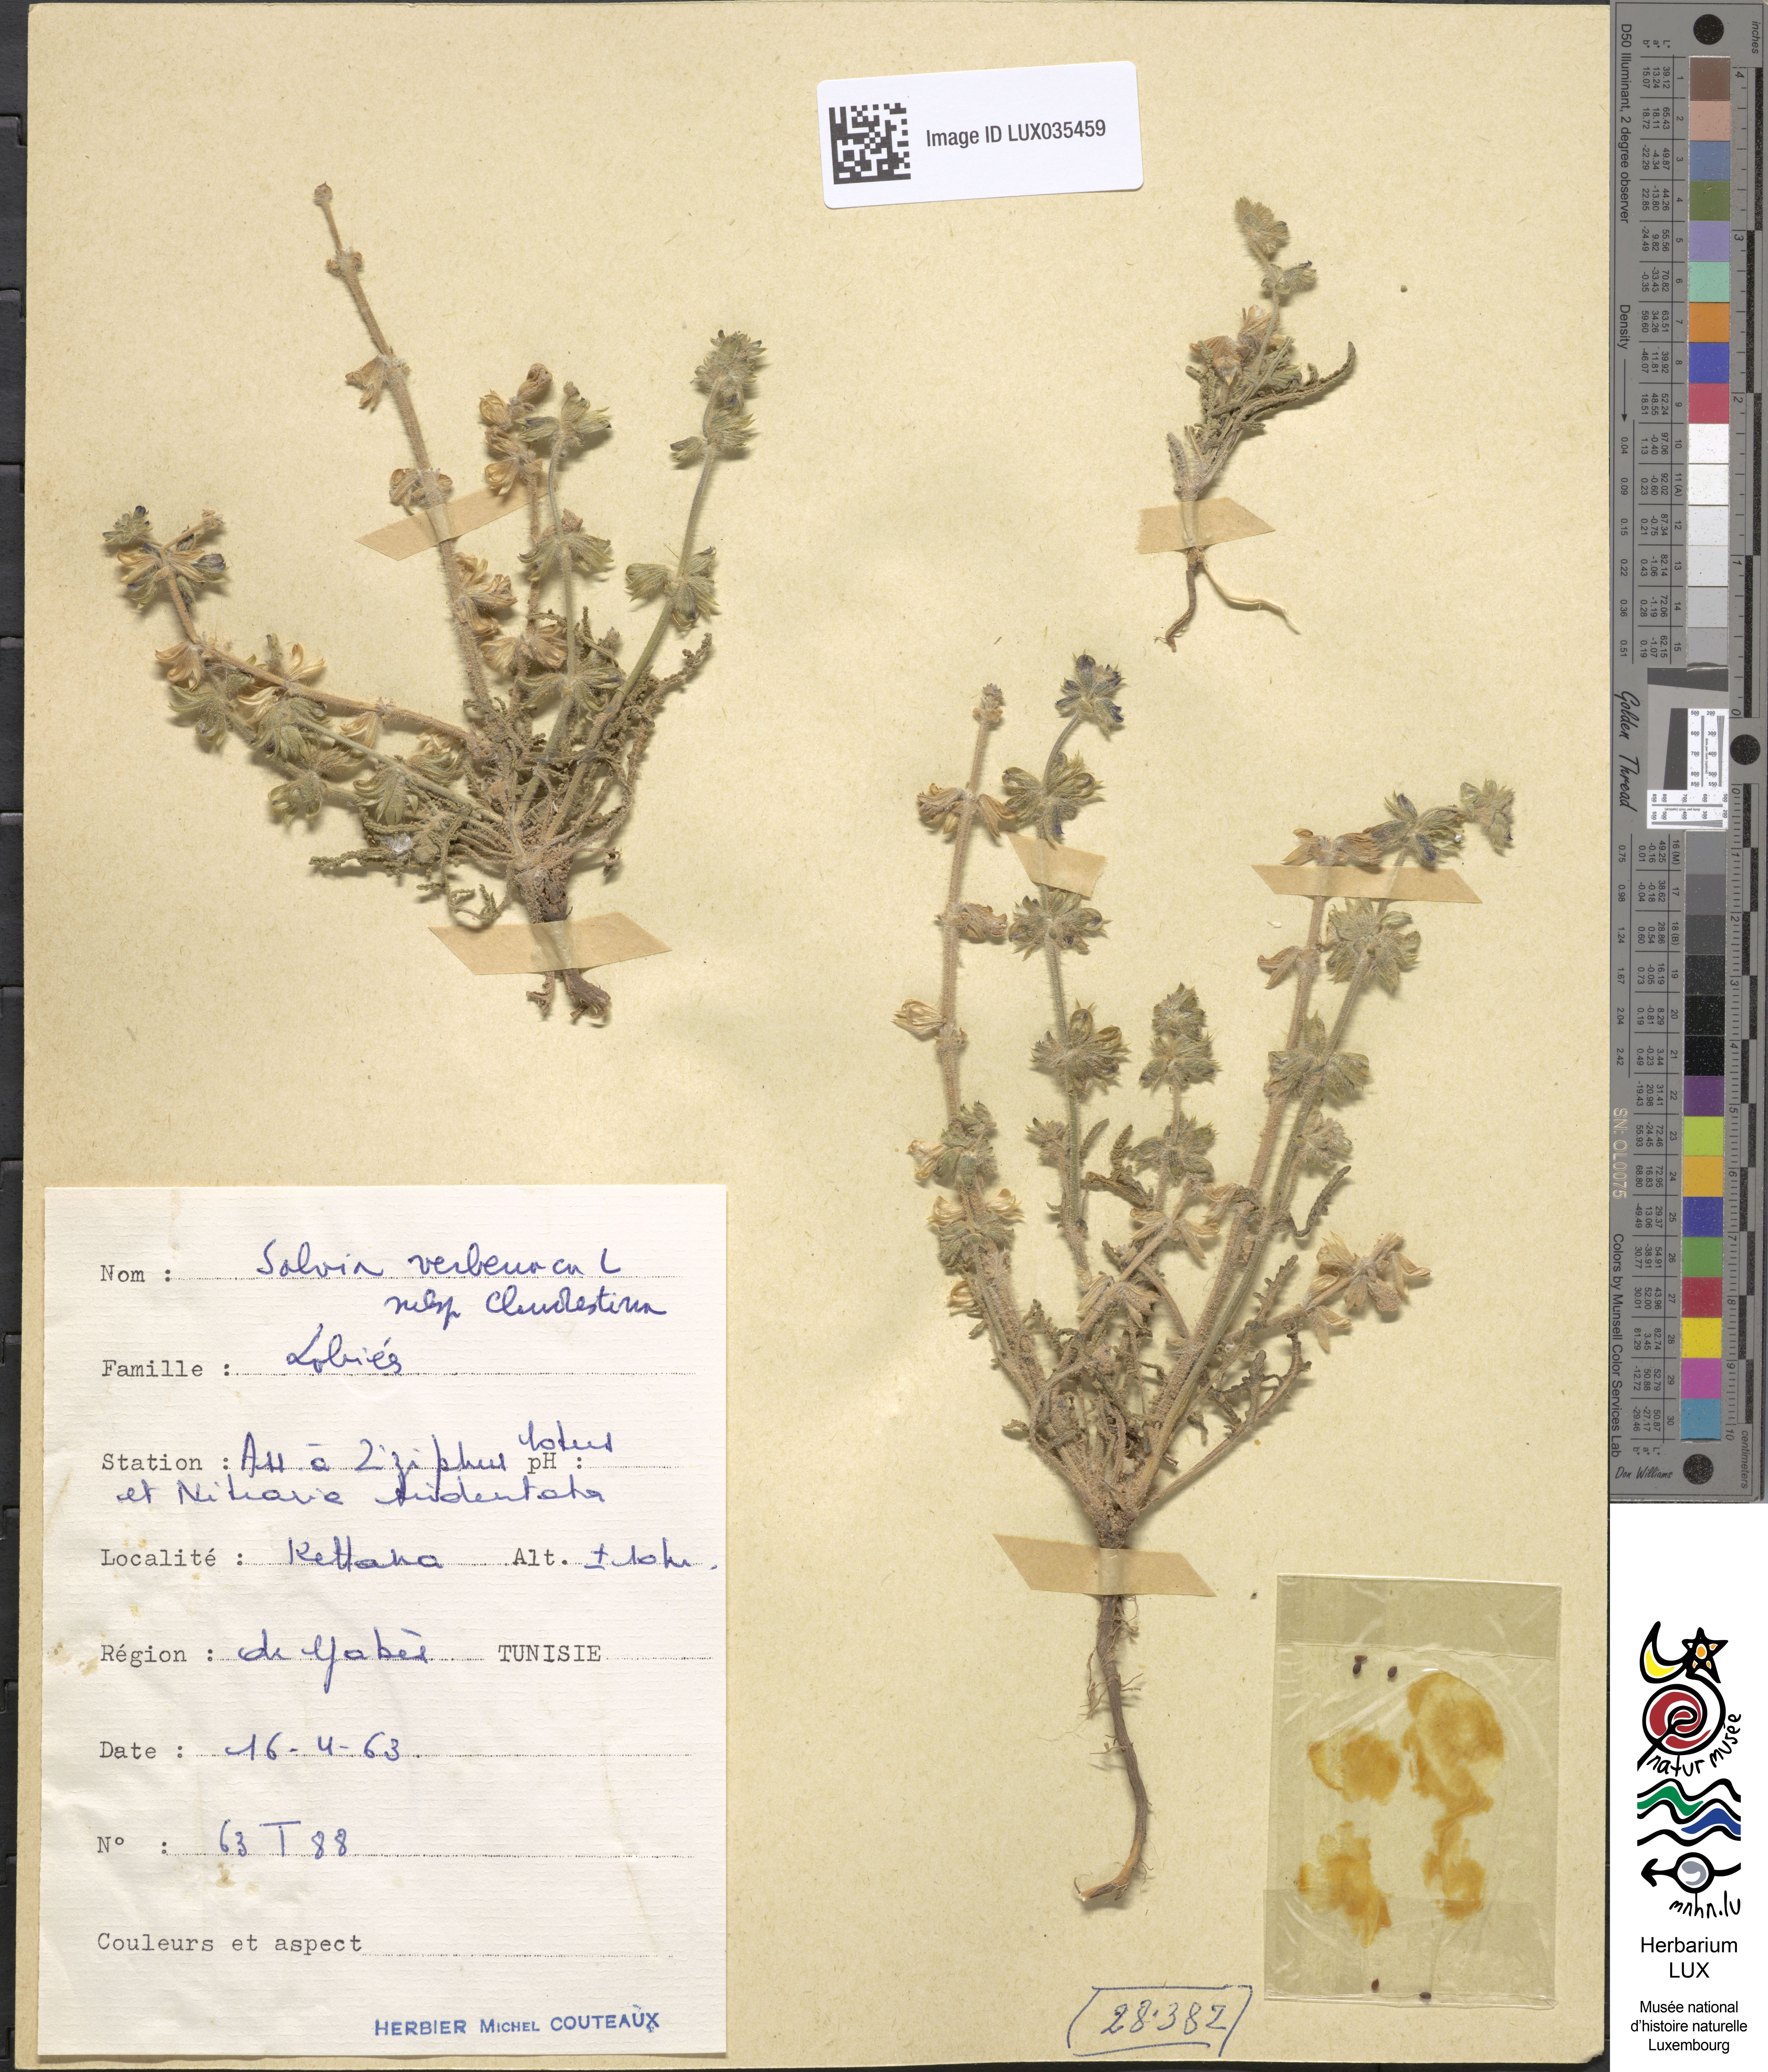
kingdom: Plantae
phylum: Tracheophyta
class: Magnoliopsida
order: Lamiales
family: Lamiaceae
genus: Salvia
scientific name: Salvia verbenaca
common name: Wild clary
